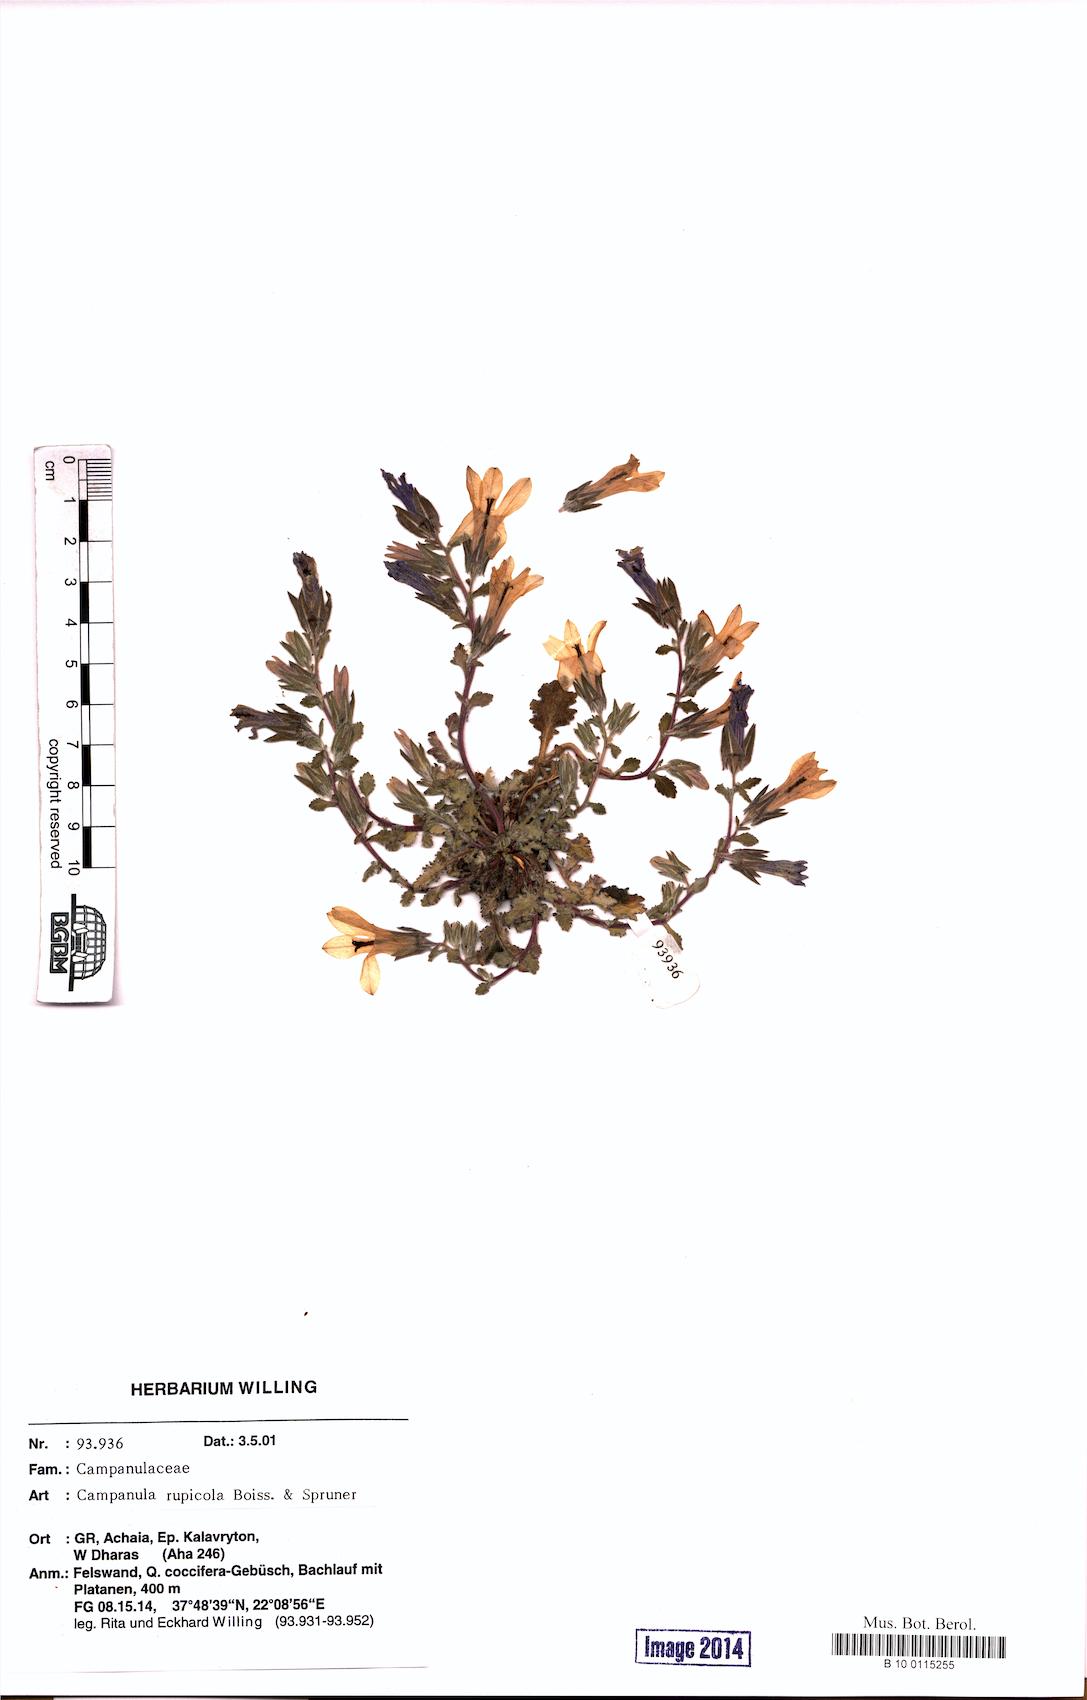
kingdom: Plantae
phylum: Tracheophyta
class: Magnoliopsida
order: Asterales
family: Campanulaceae
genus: Campanula
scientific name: Campanula rupicola
